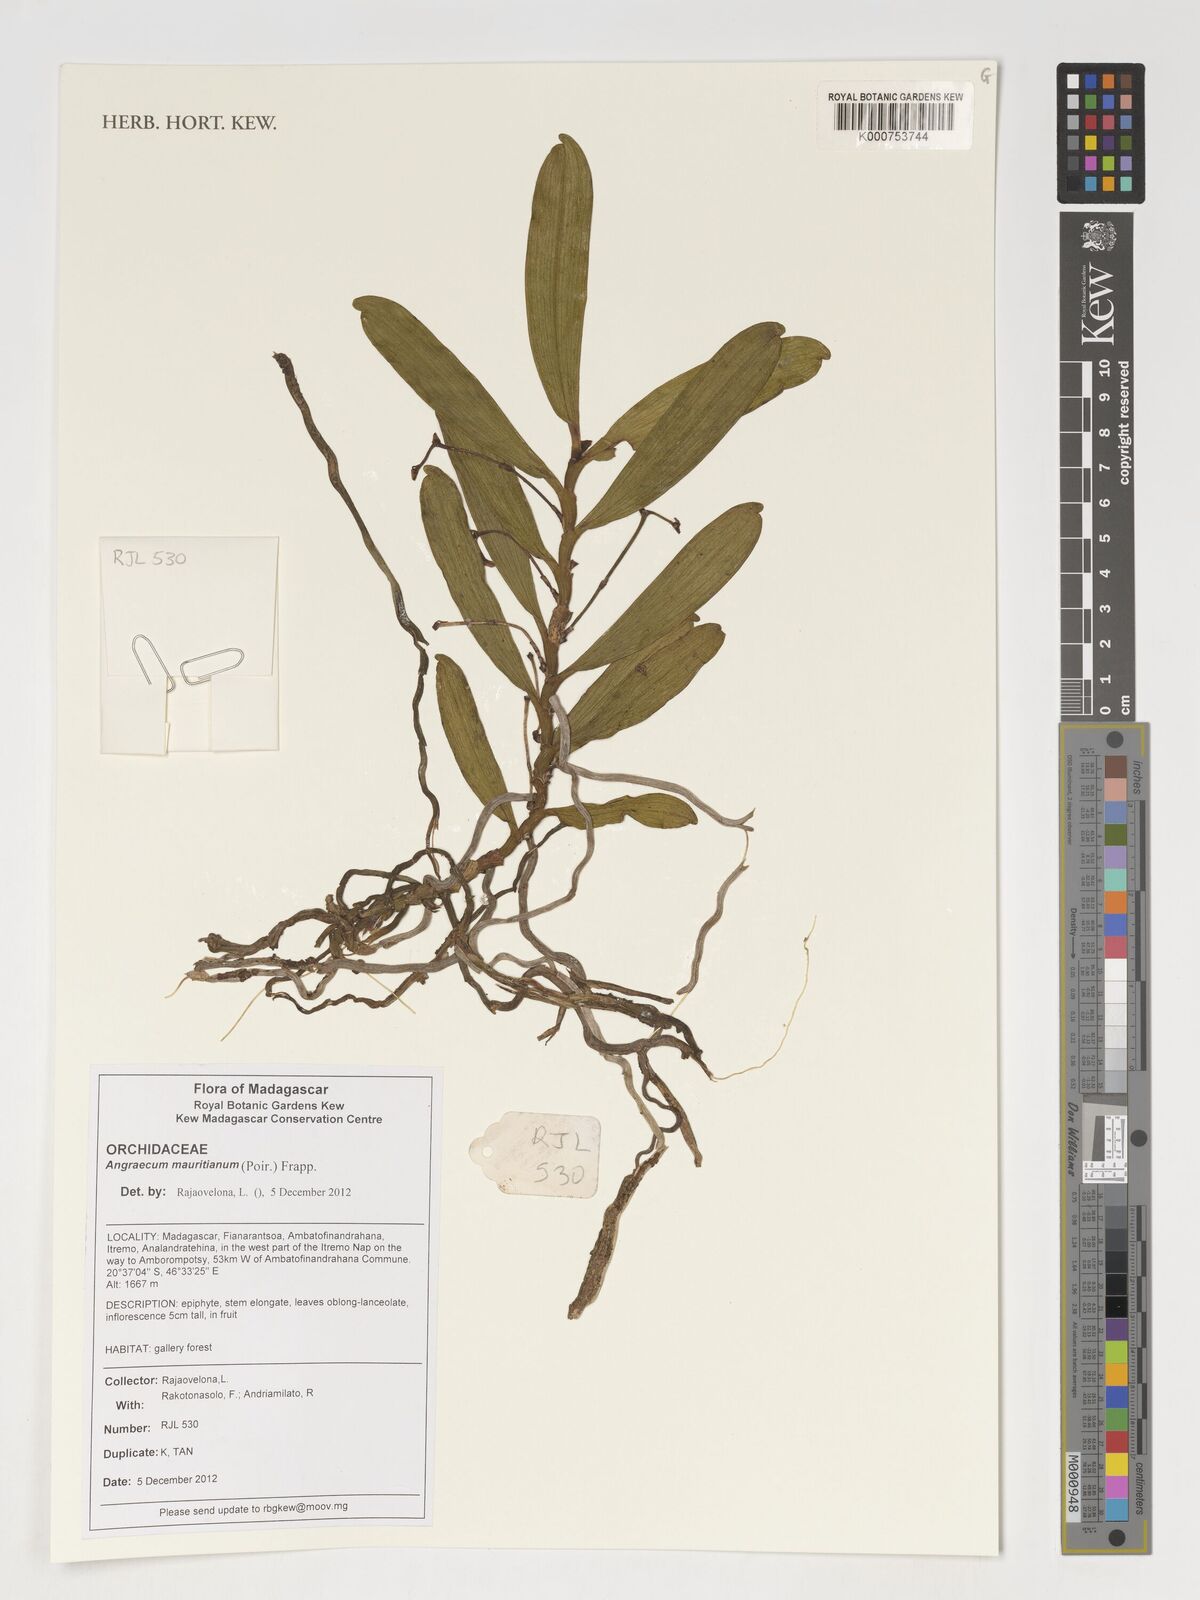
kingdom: Plantae
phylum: Tracheophyta
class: Liliopsida
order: Asparagales
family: Orchidaceae
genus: Angraecum
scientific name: Angraecum mauritianum
